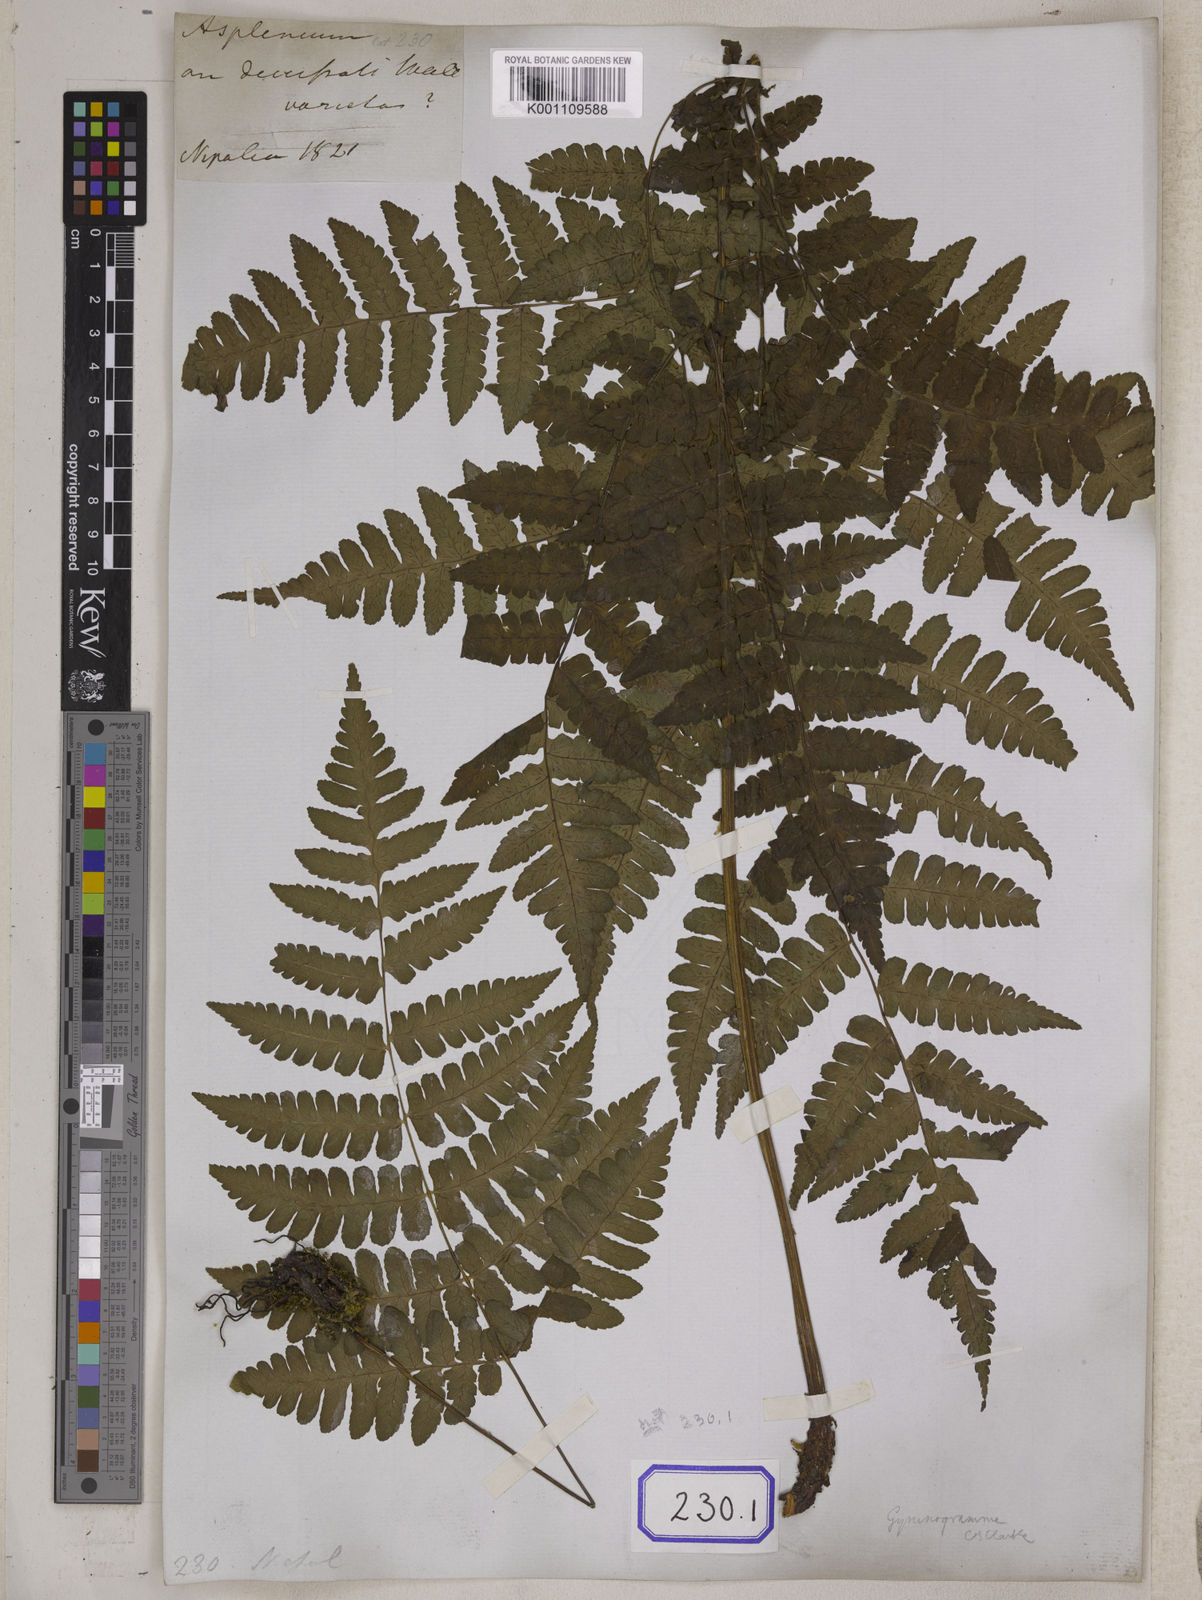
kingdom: Plantae
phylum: Tracheophyta
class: Polypodiopsida
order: Polypodiales
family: Athyriaceae
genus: Diplazium
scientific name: Diplazium maximum
